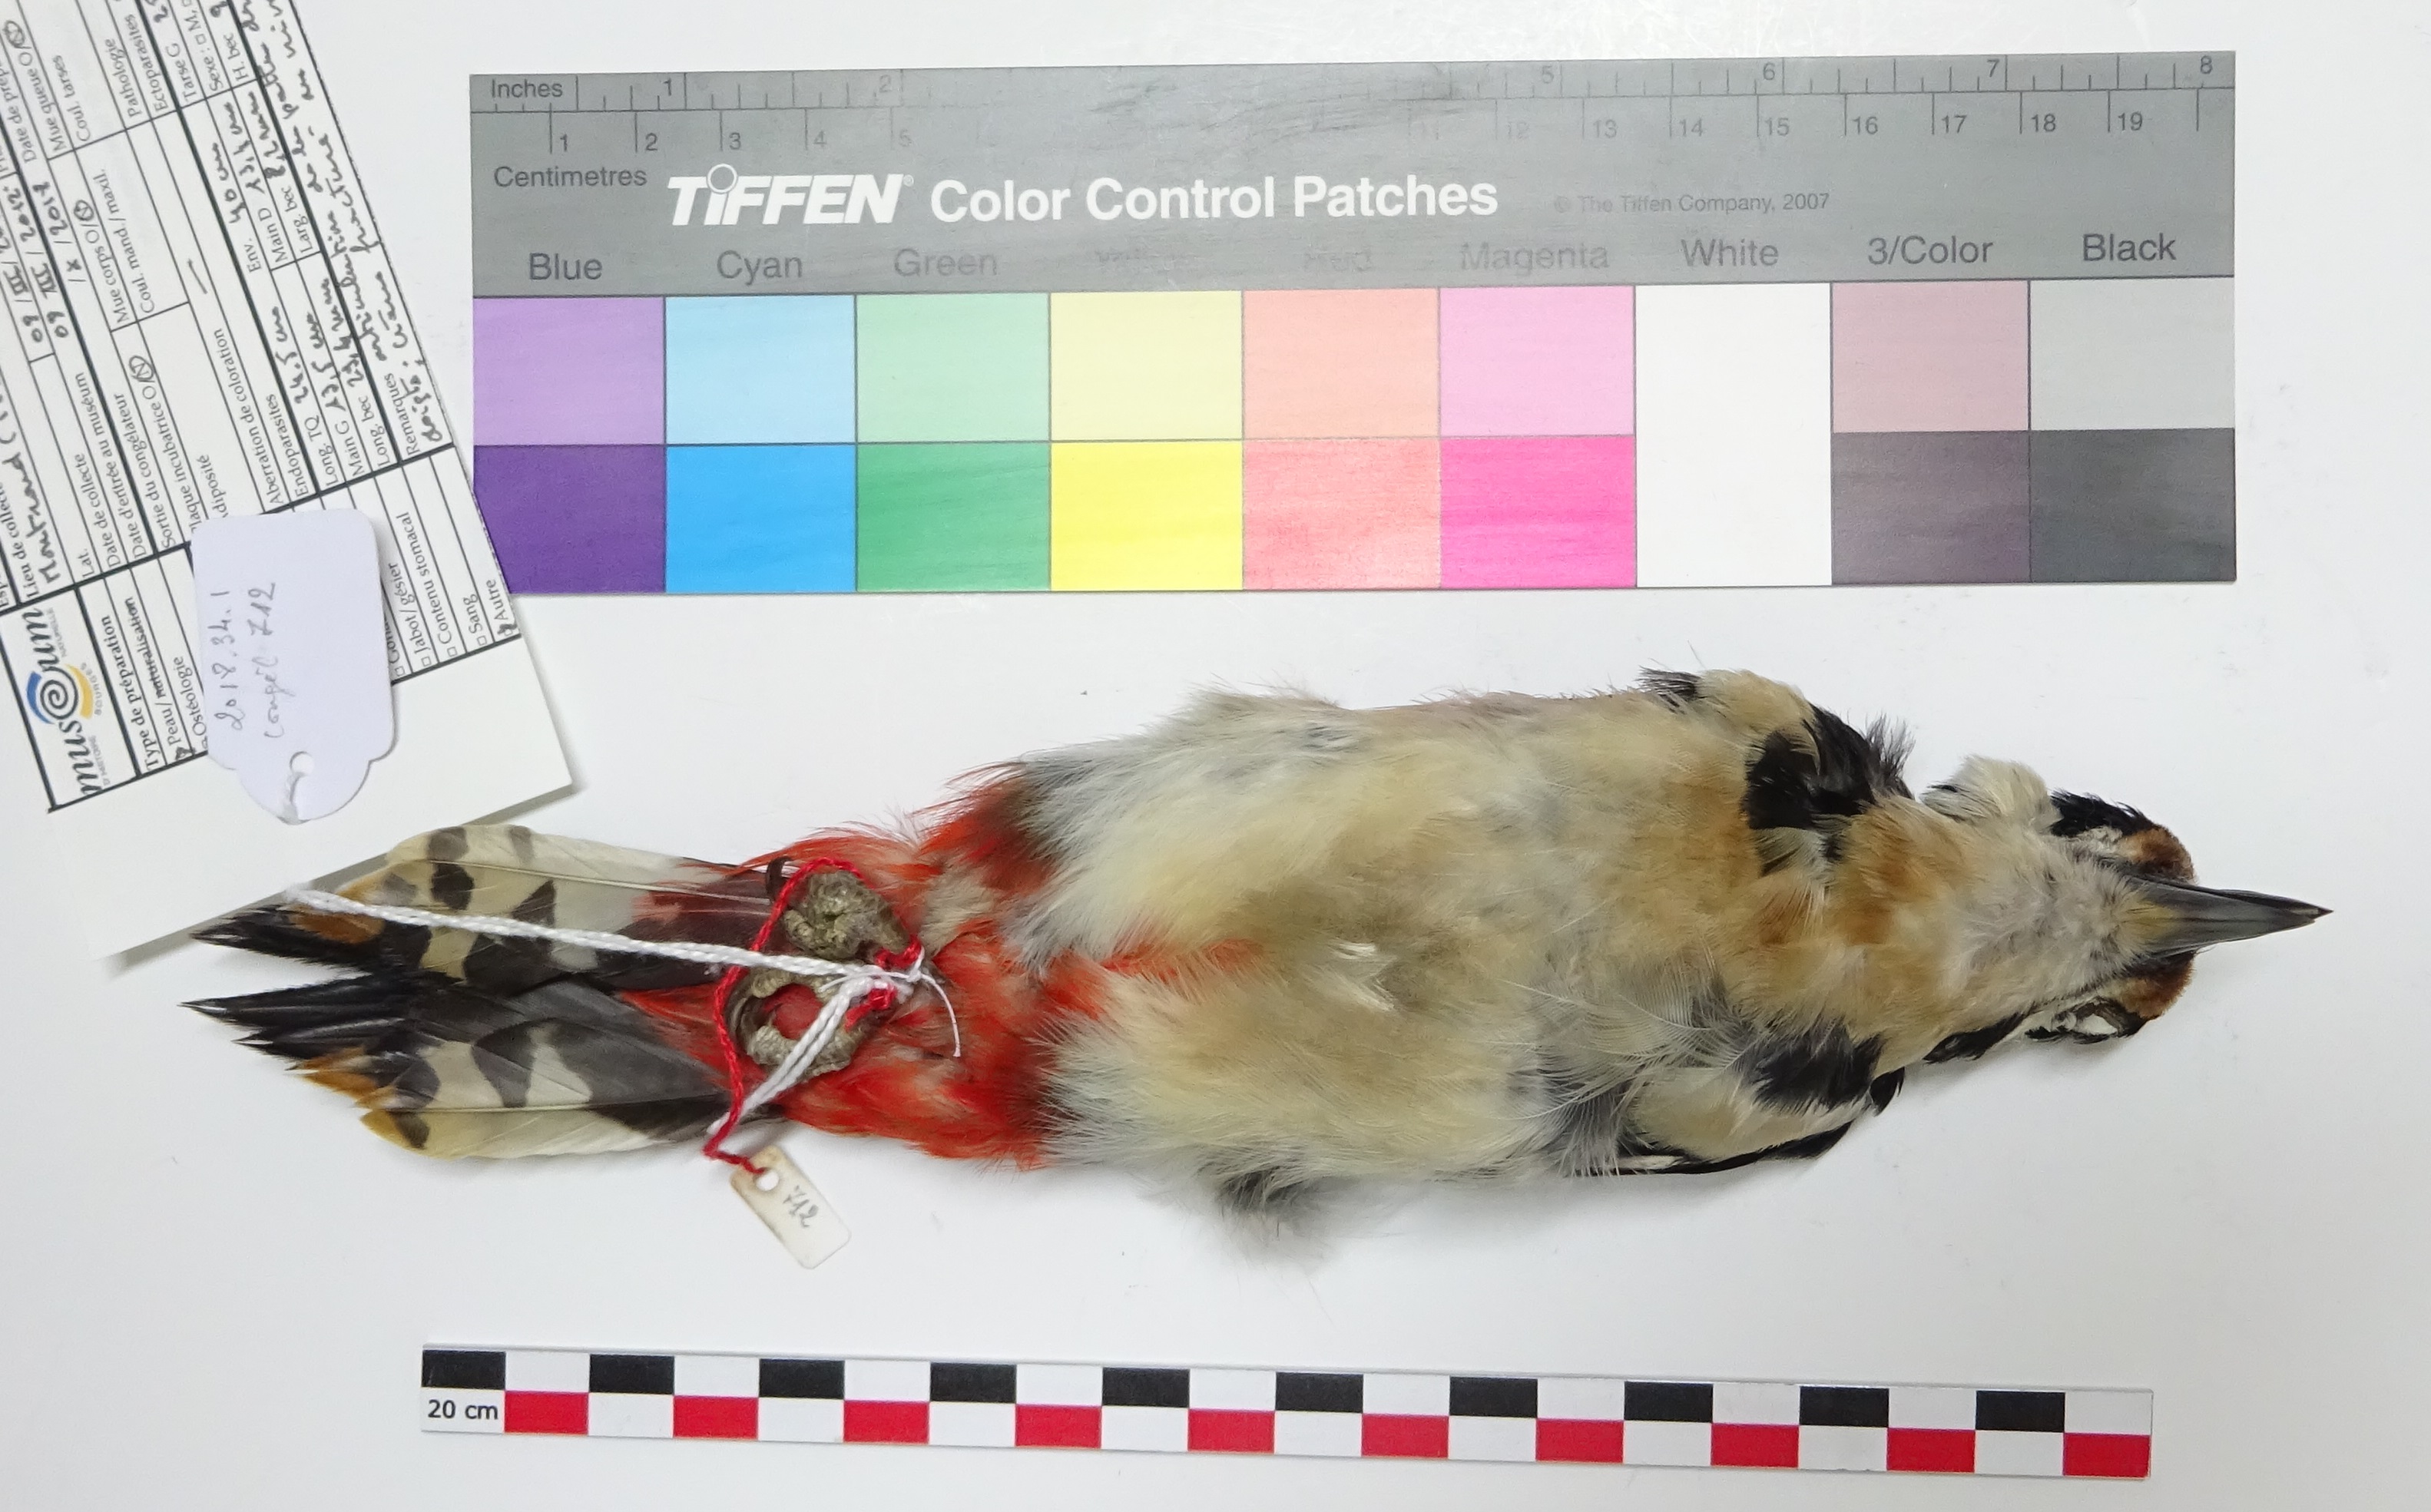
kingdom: Animalia
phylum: Chordata
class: Aves
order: Piciformes
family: Picidae
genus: Dendrocopos
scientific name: Dendrocopos major
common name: Great spotted woodpecker
